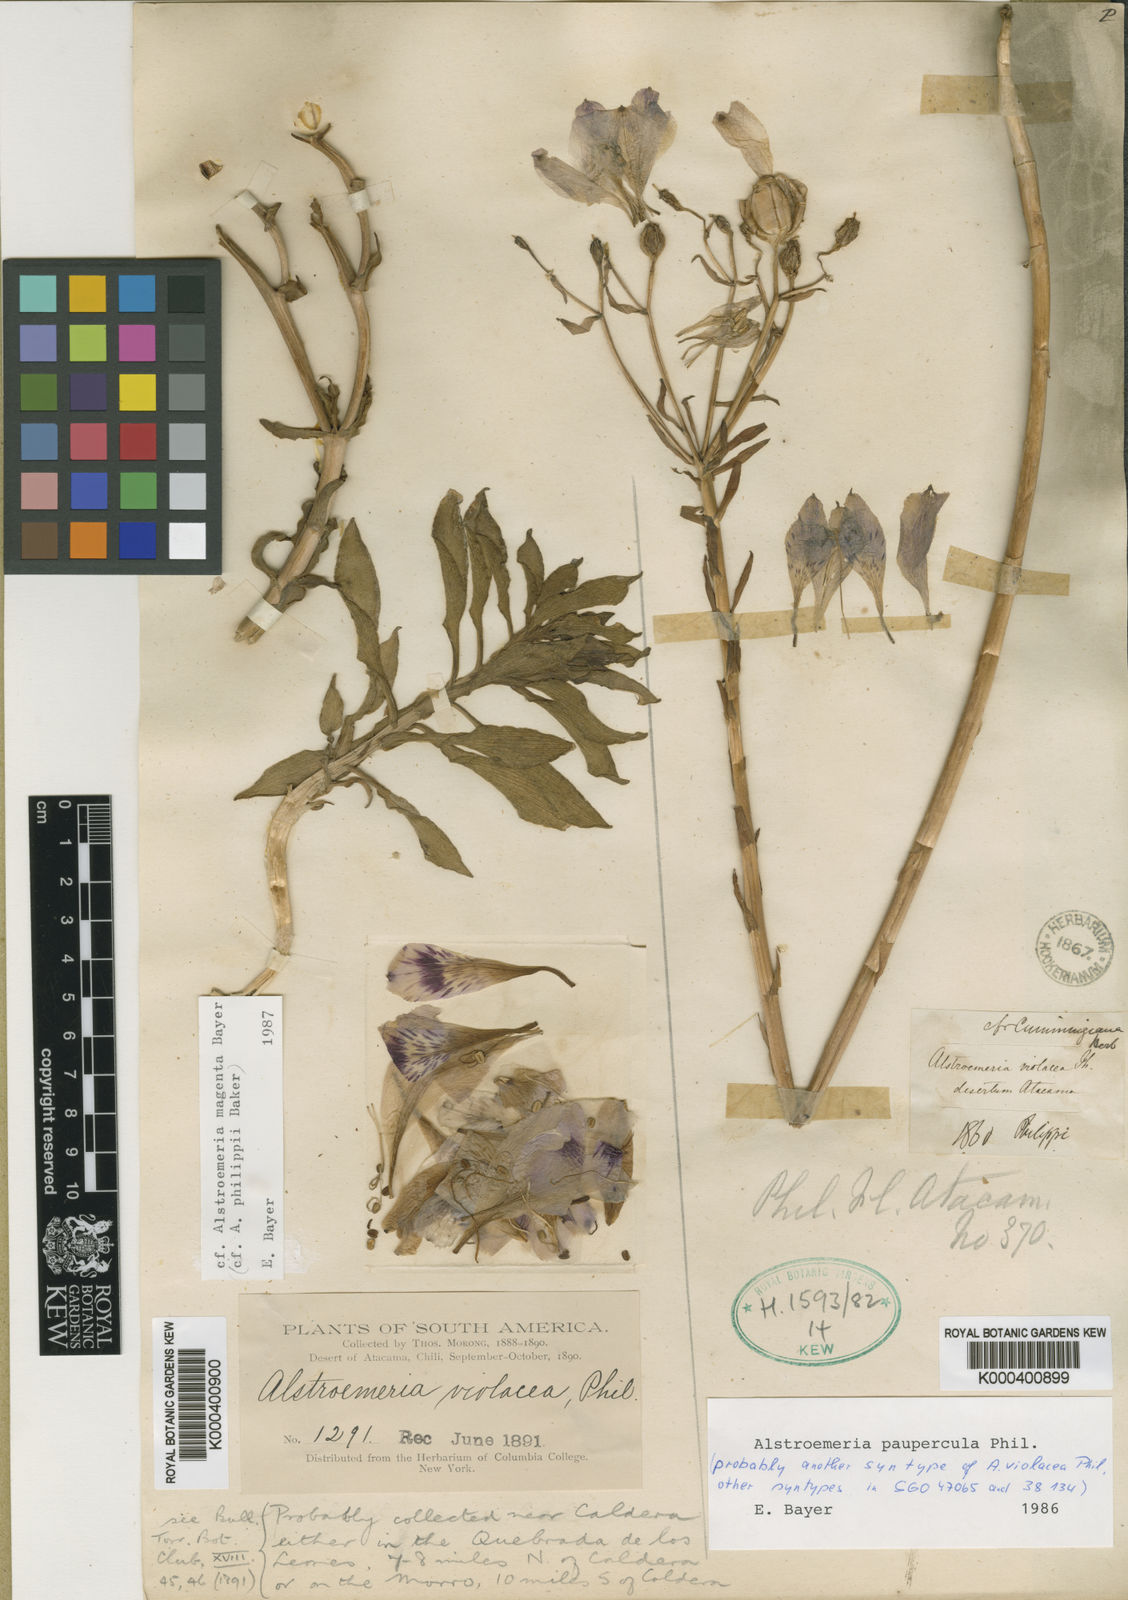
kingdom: Plantae
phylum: Tracheophyta
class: Liliopsida
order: Liliales
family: Alstroemeriaceae
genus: Alstroemeria
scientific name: Alstroemeria paupercula
